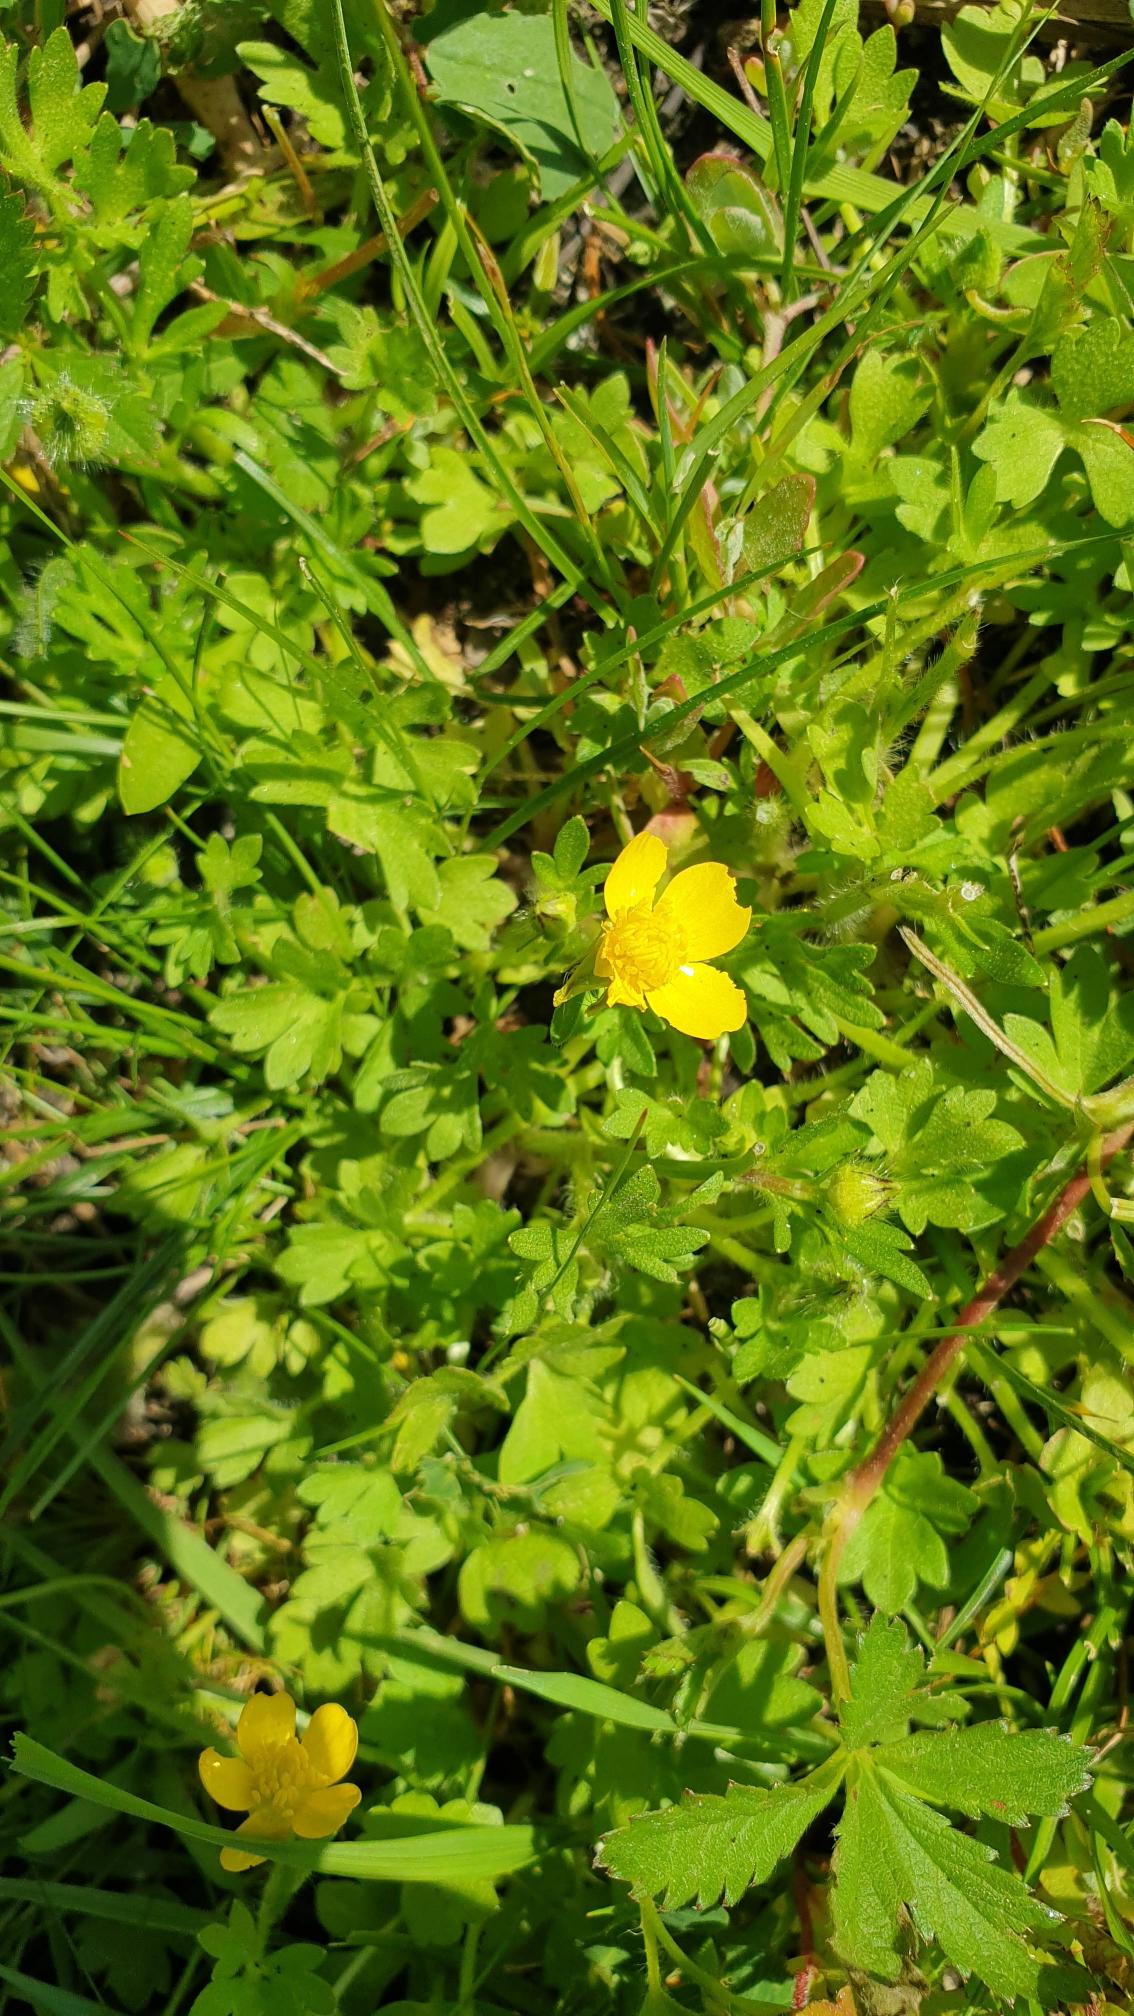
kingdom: Plantae
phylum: Tracheophyta
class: Magnoliopsida
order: Ranunculales
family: Ranunculaceae
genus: Ranunculus
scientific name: Ranunculus sardous
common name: Stivhåret ranunkel
